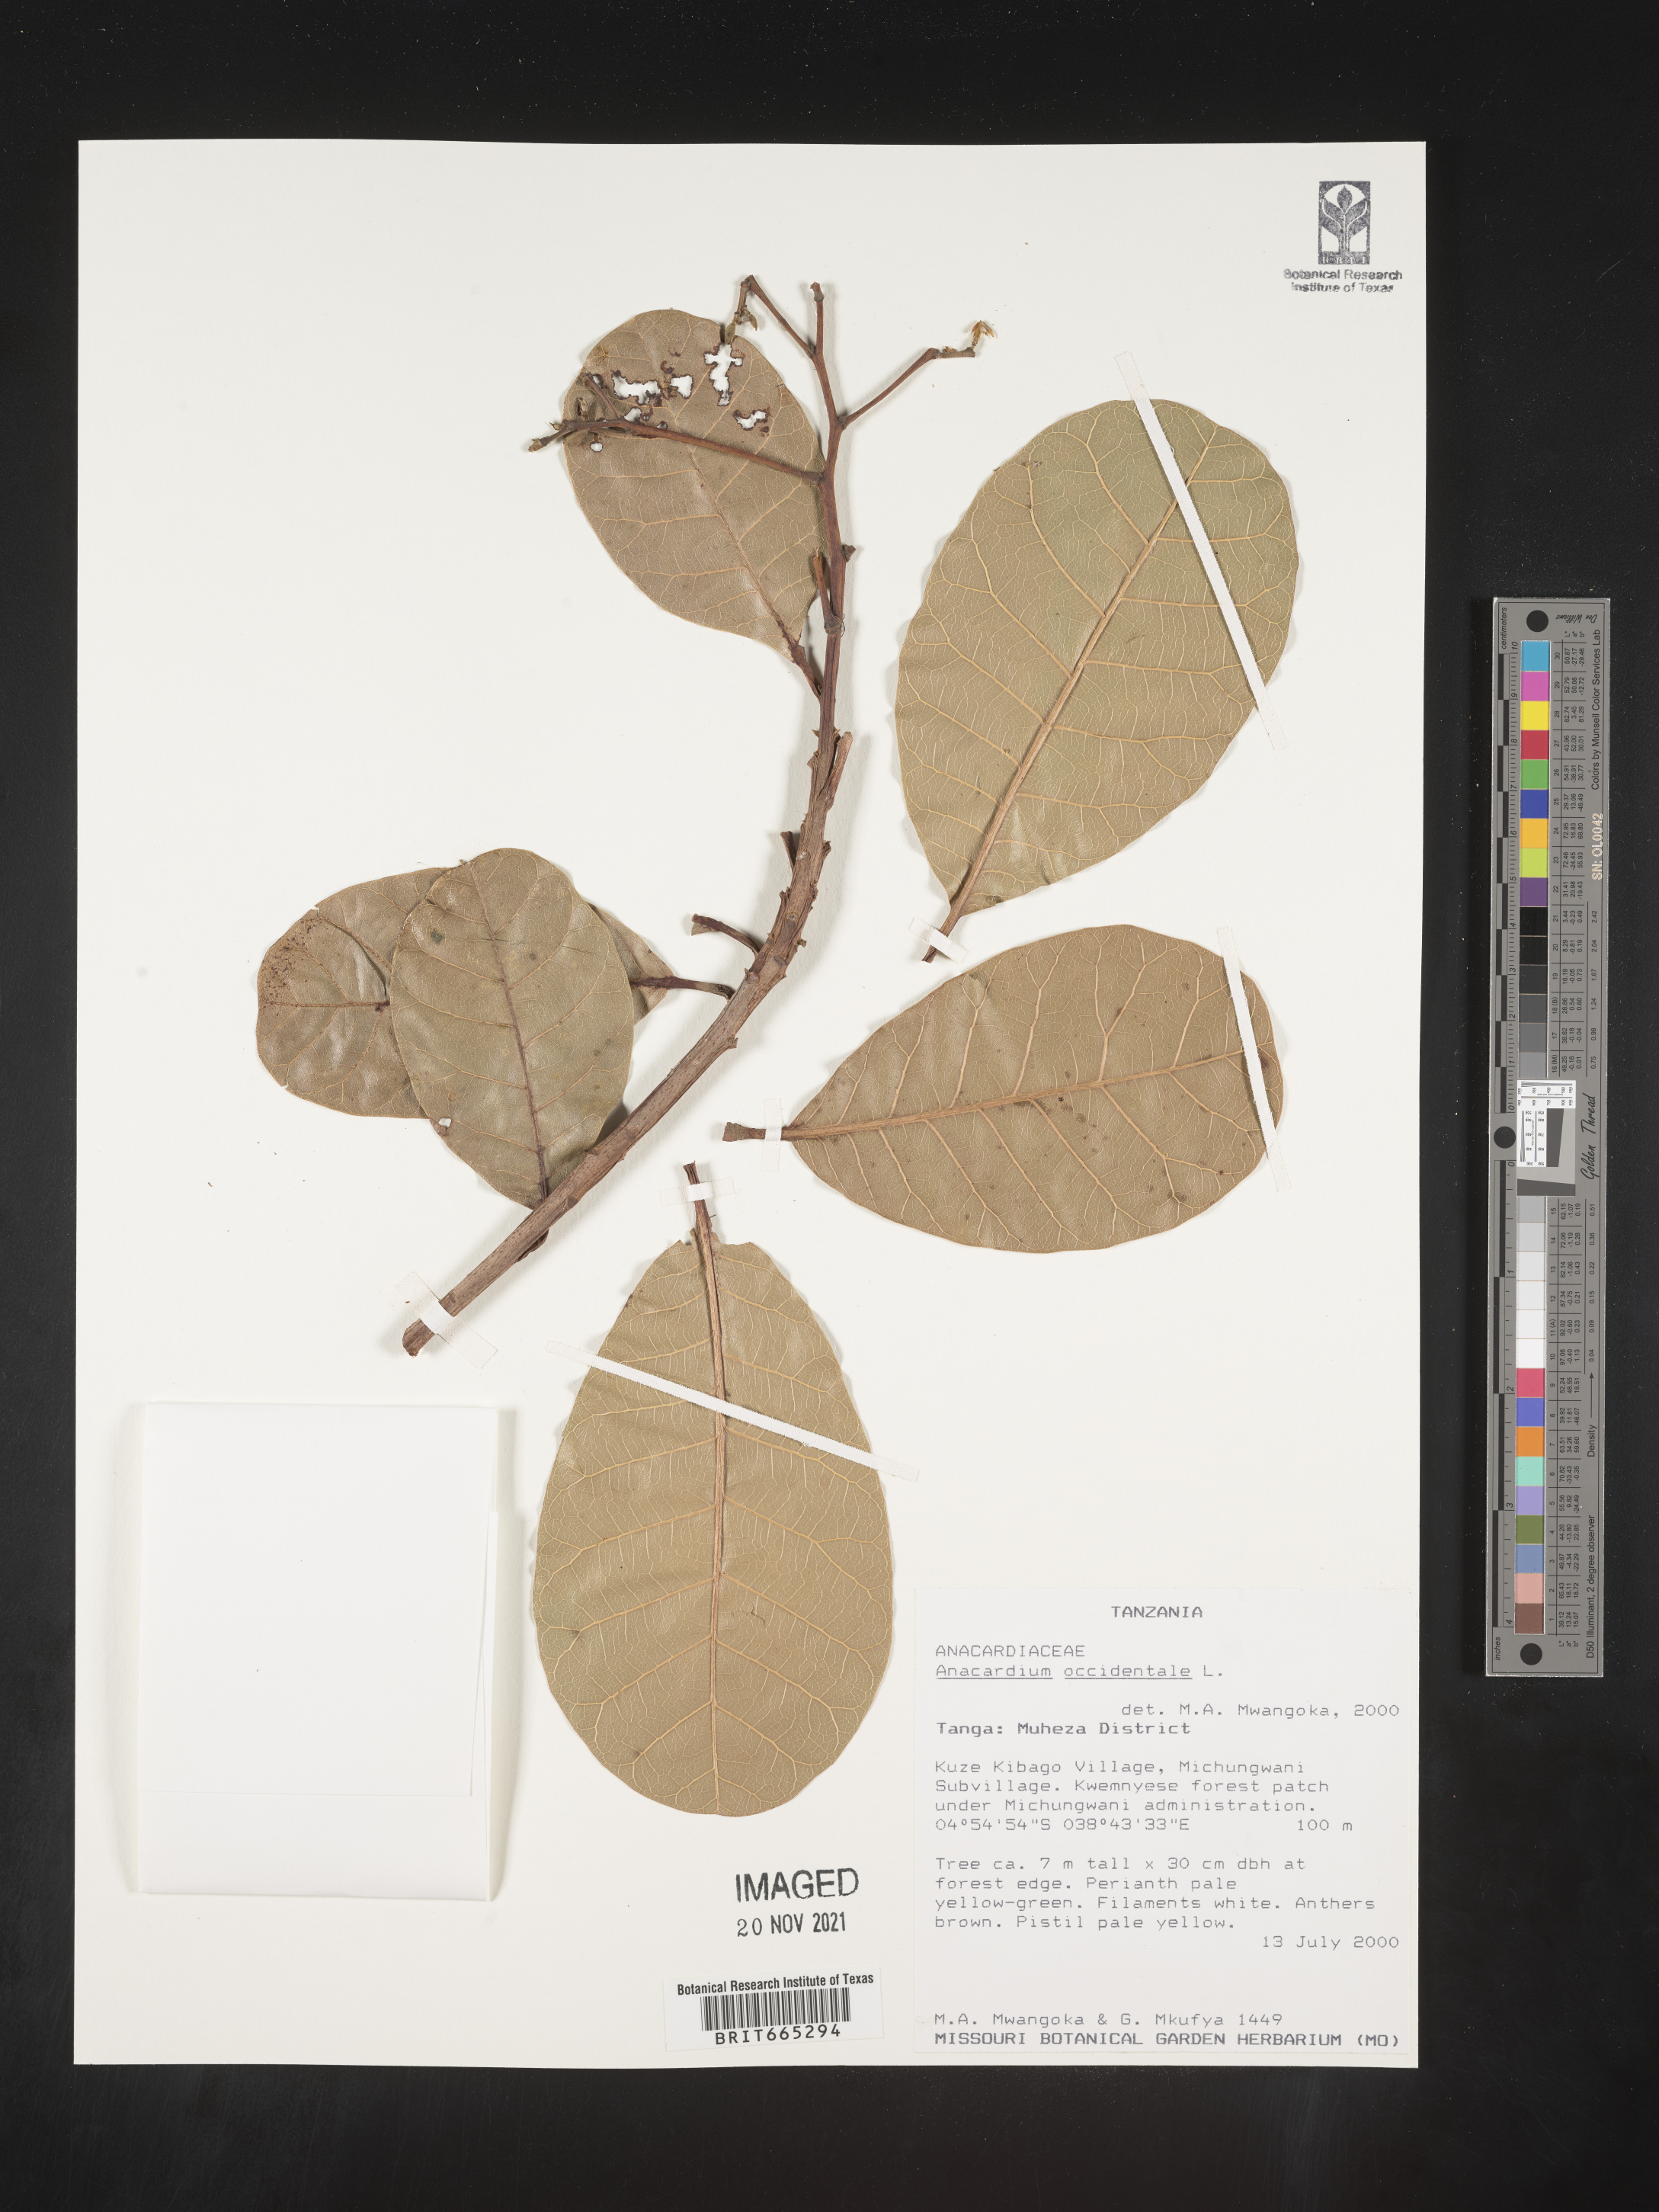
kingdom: Plantae
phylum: Tracheophyta
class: Magnoliopsida
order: Sapindales
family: Anacardiaceae
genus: Anacardium
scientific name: Anacardium
